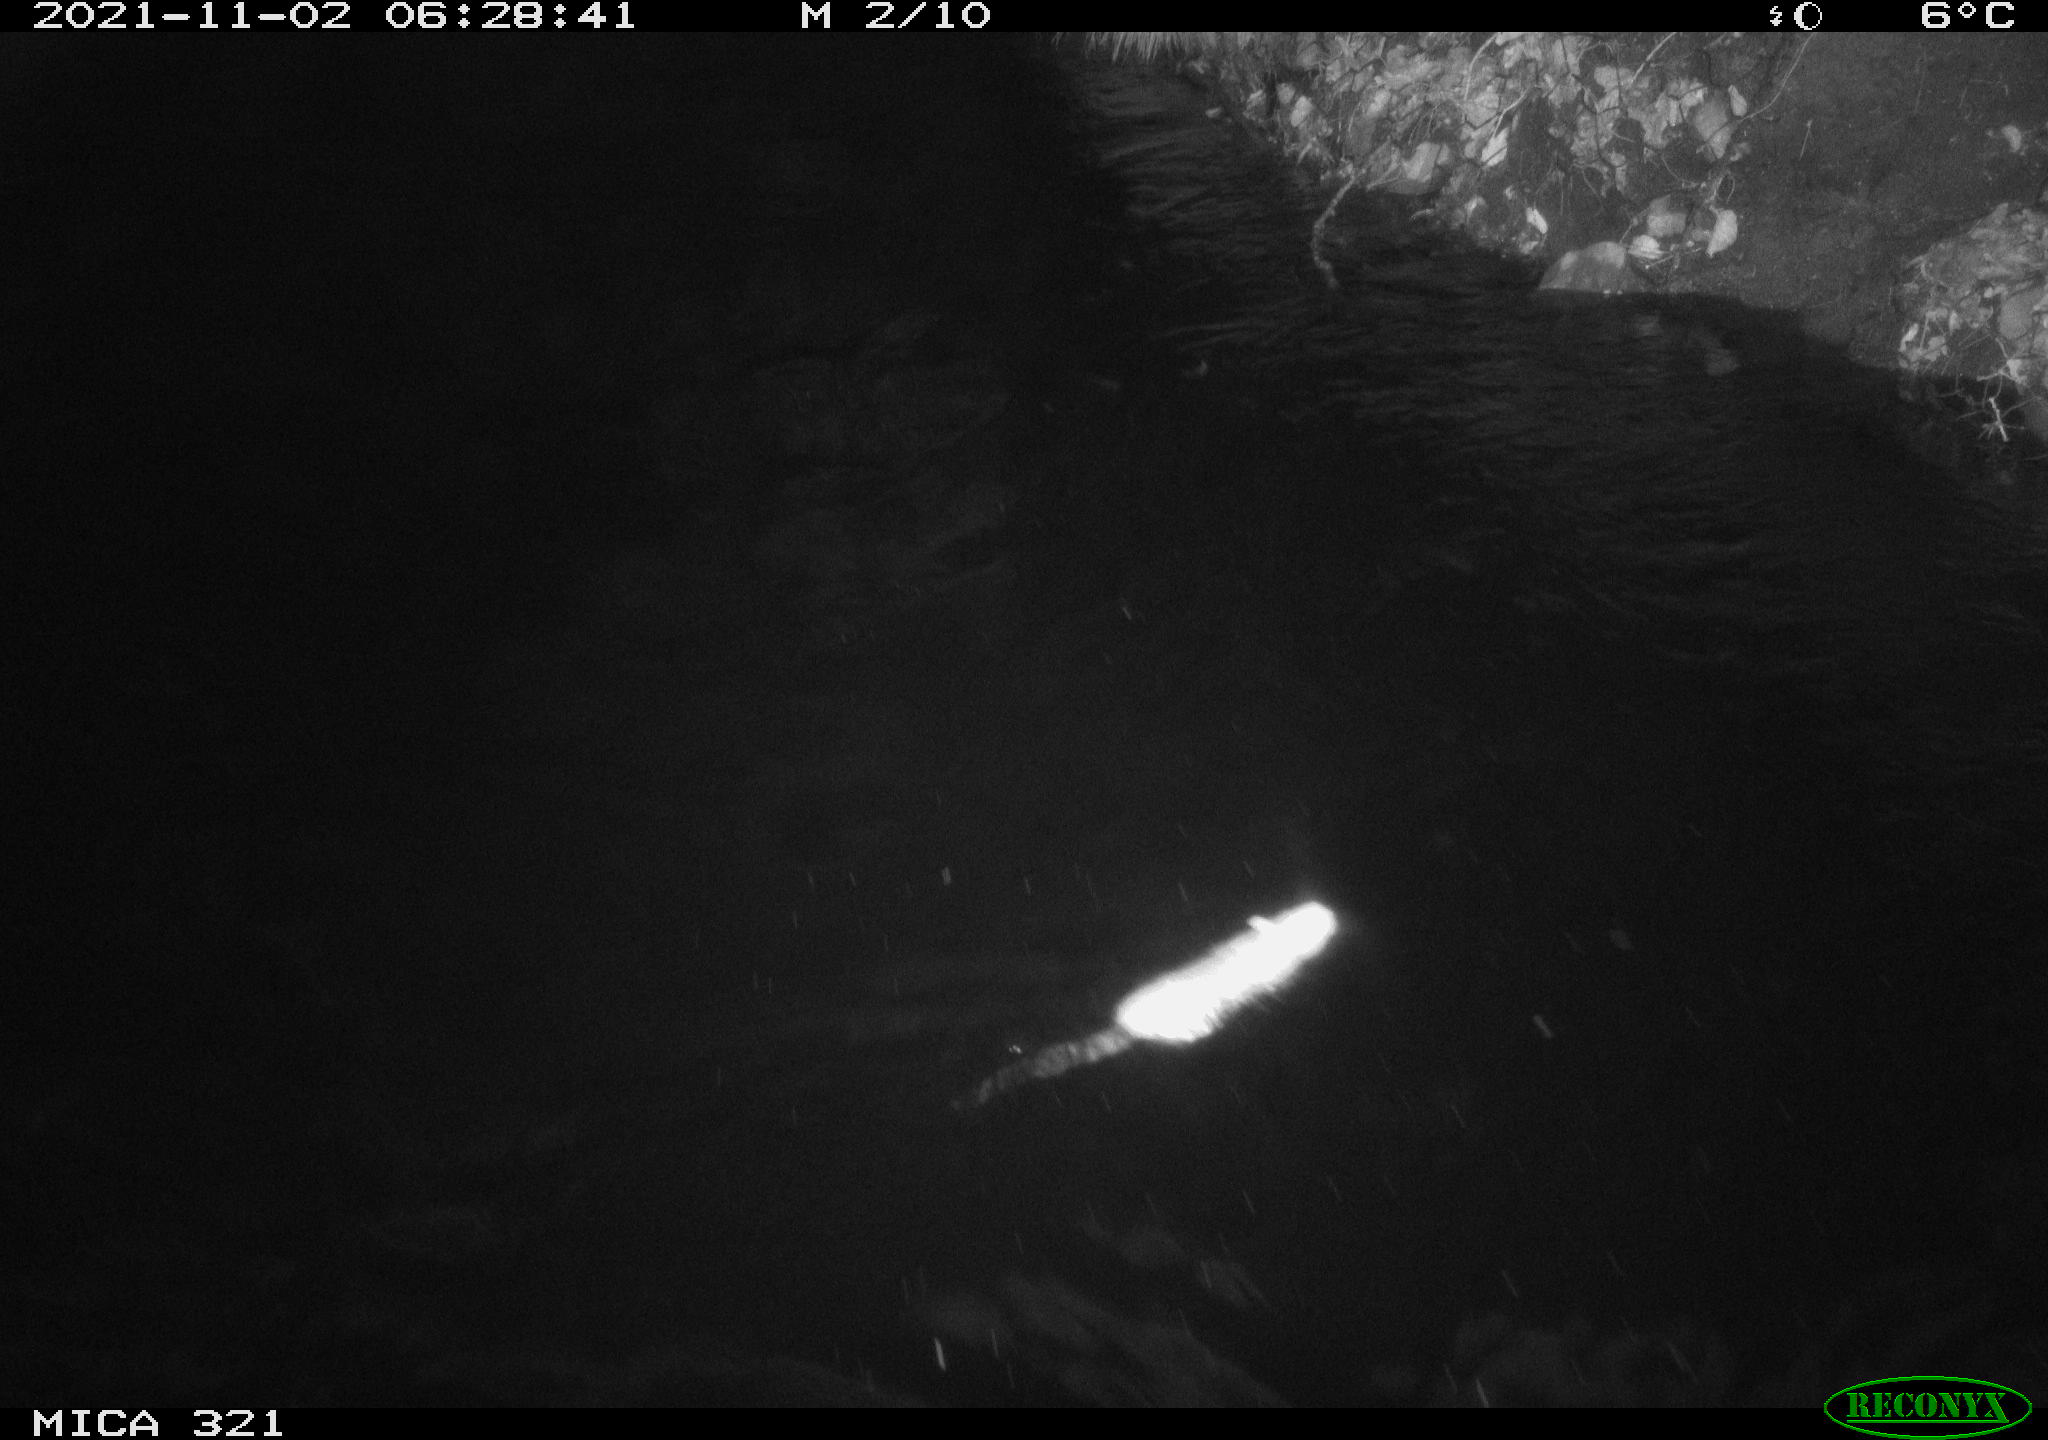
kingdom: Animalia
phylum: Chordata
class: Mammalia
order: Rodentia
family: Muridae
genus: Rattus
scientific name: Rattus norvegicus
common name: Brown rat
